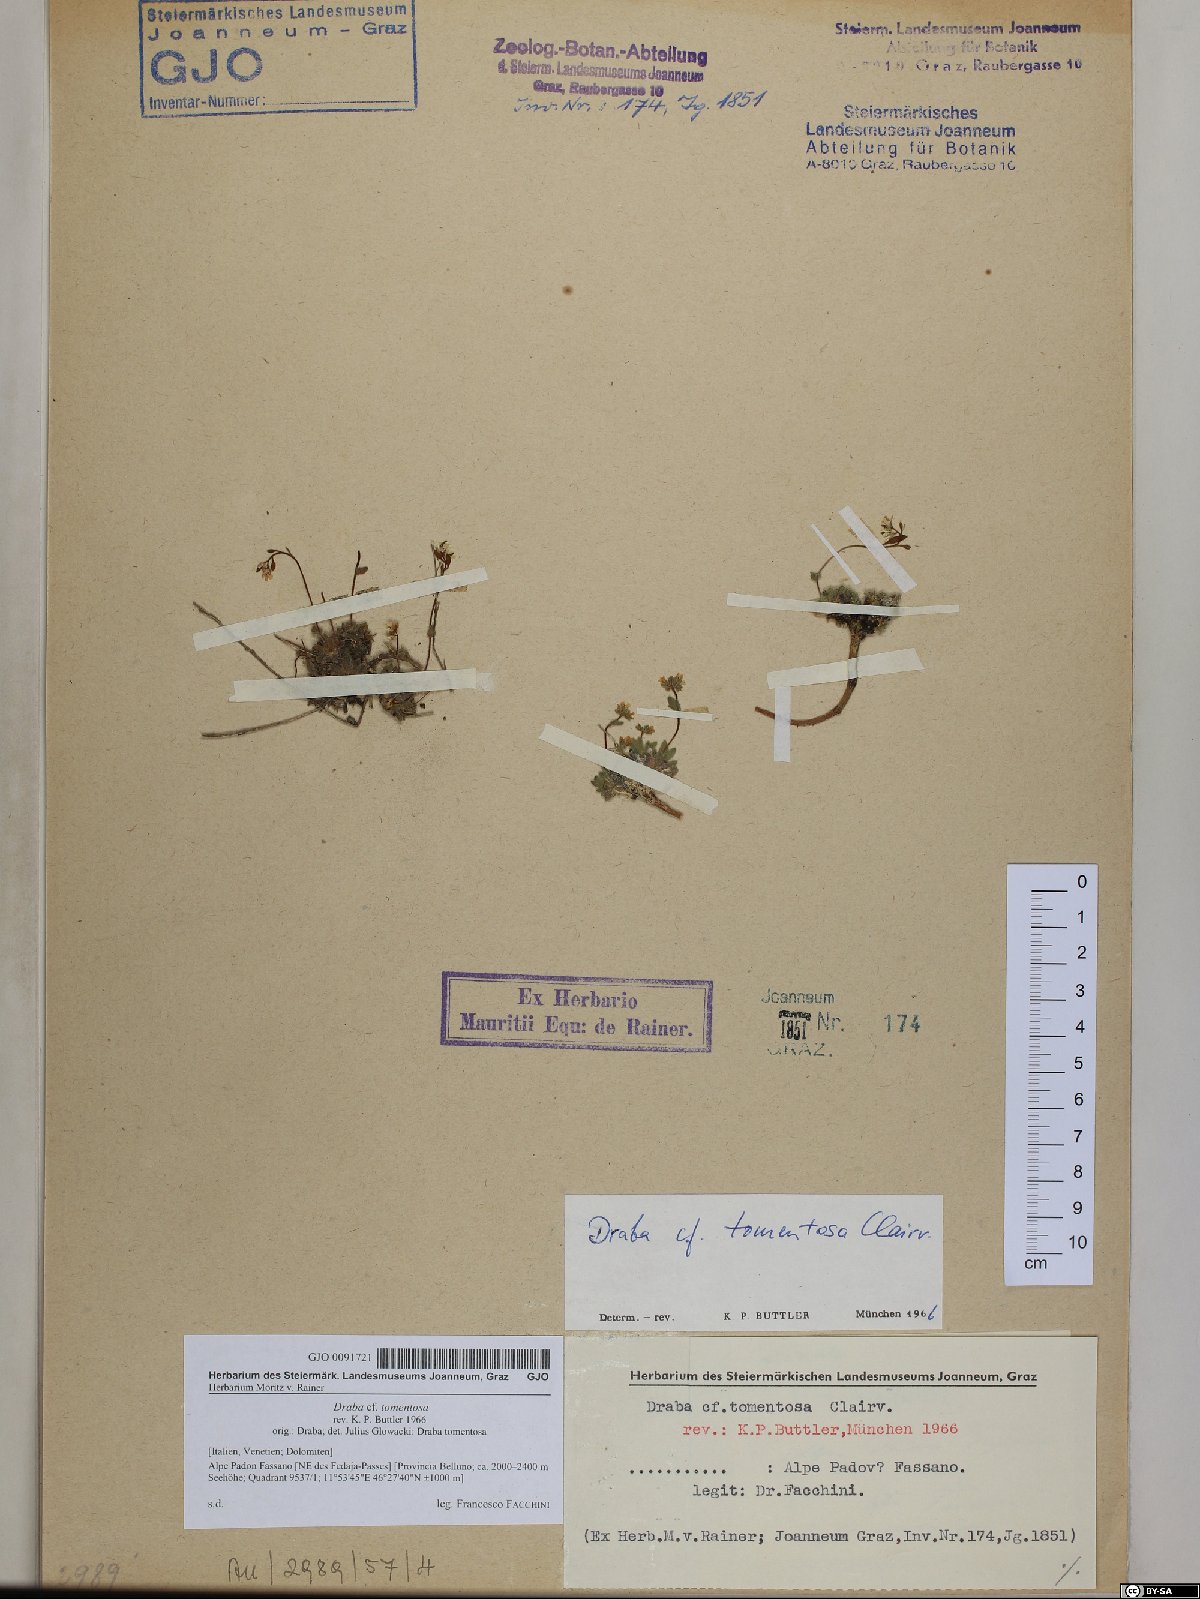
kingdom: Plantae
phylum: Tracheophyta
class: Magnoliopsida
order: Brassicales
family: Brassicaceae
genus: Draba
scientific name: Draba tomentosa
